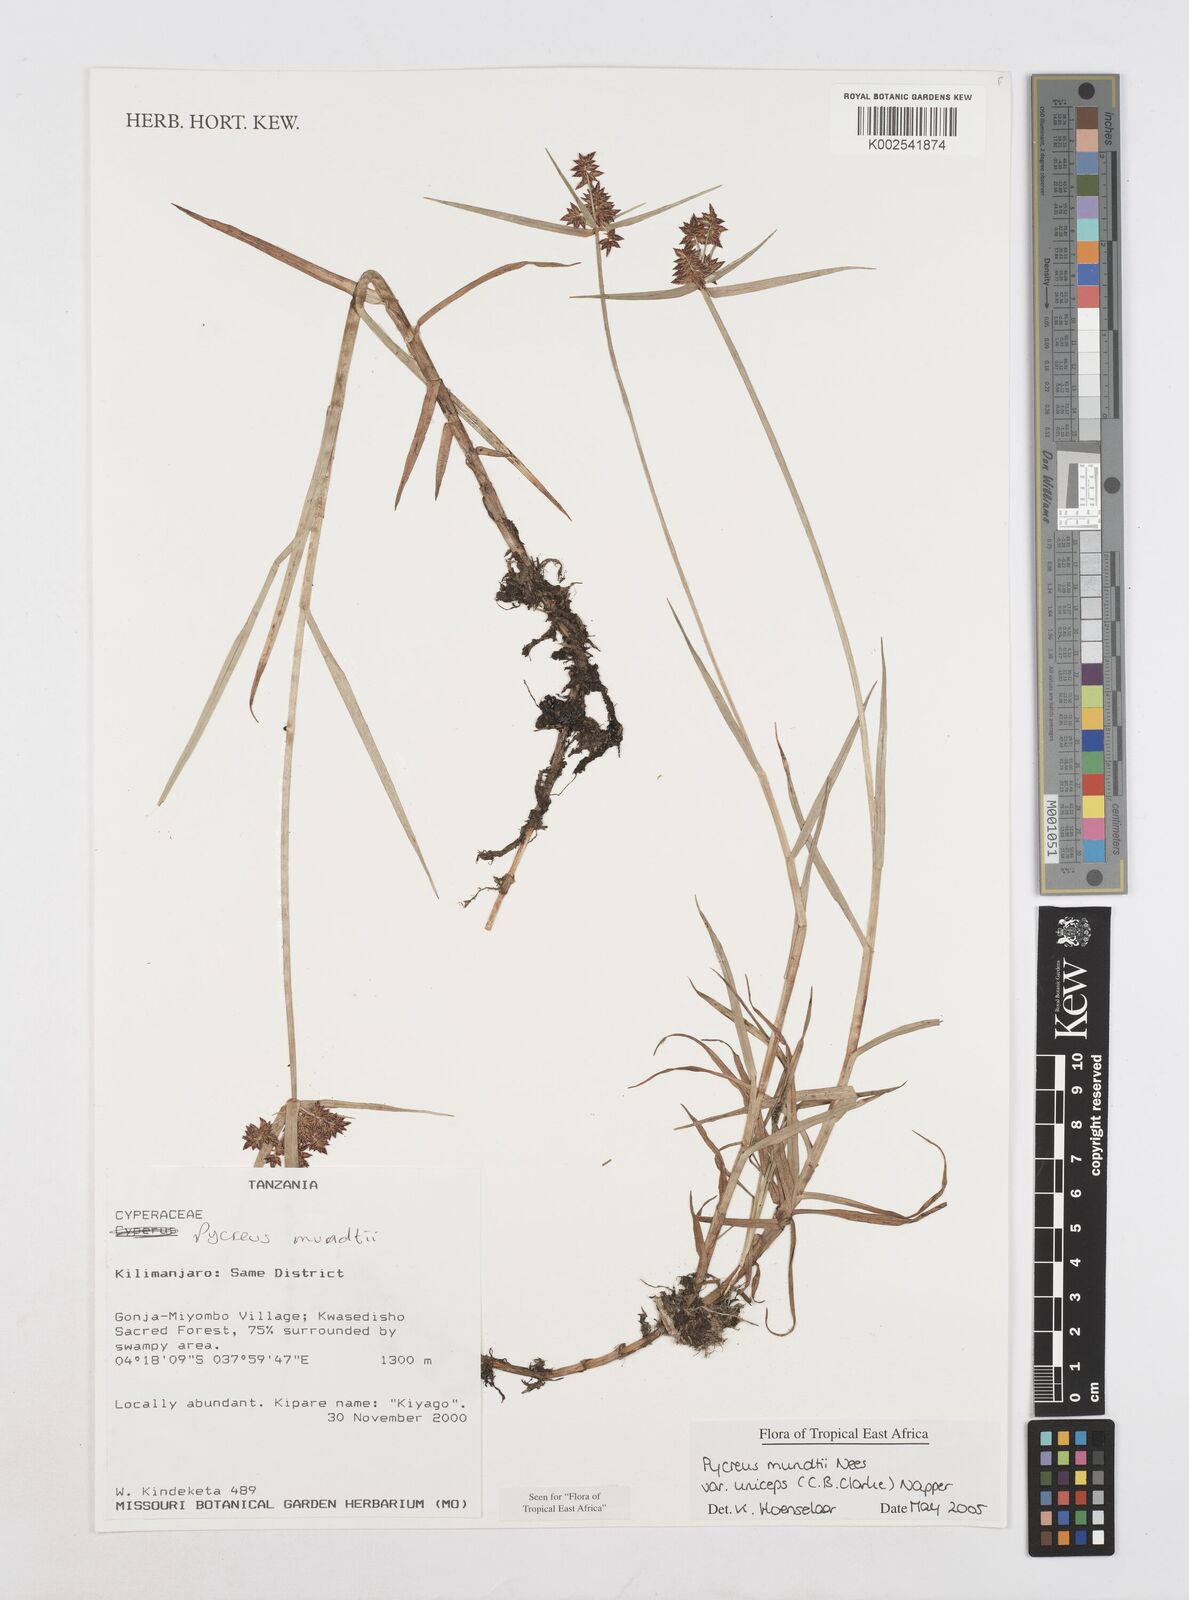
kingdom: Plantae
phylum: Tracheophyta
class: Liliopsida
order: Poales
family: Cyperaceae
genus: Cyperus
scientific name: Cyperus mundii
